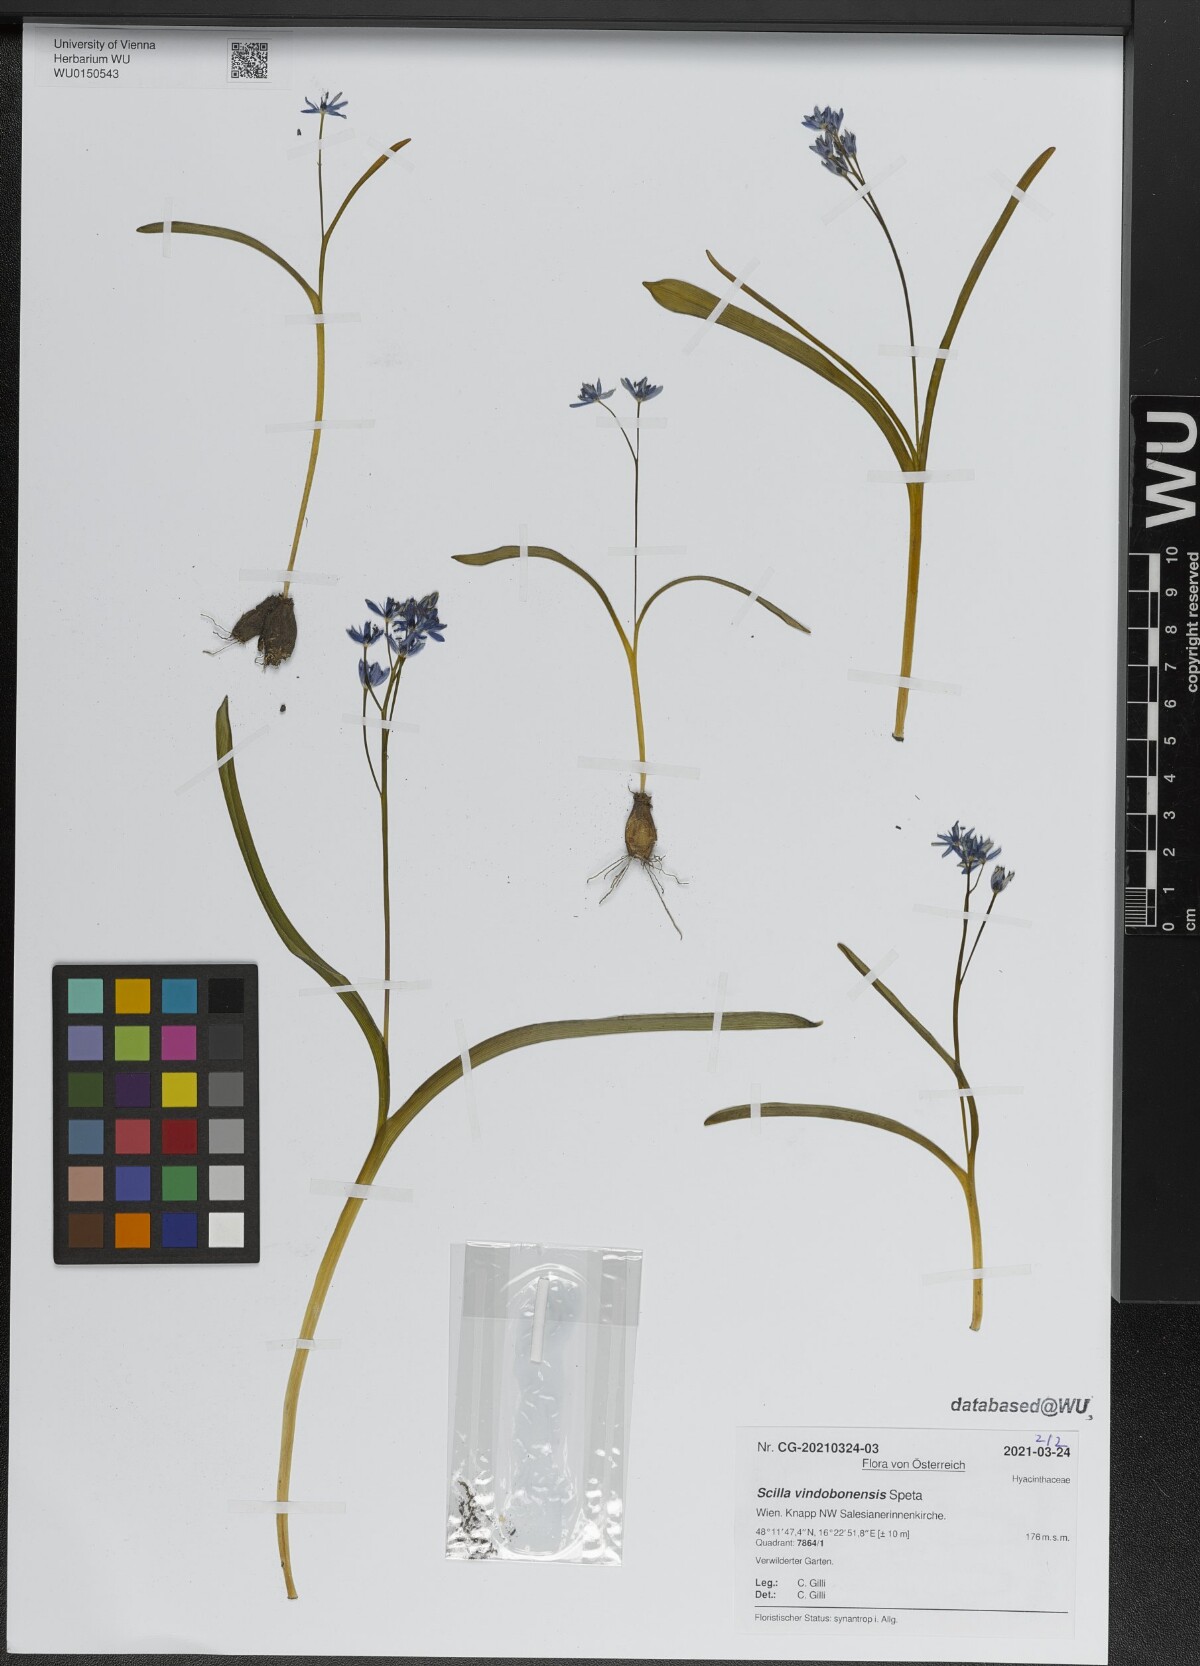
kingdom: Plantae
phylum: Tracheophyta
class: Liliopsida
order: Asparagales
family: Asparagaceae
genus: Scilla
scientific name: Scilla vindobonensis
